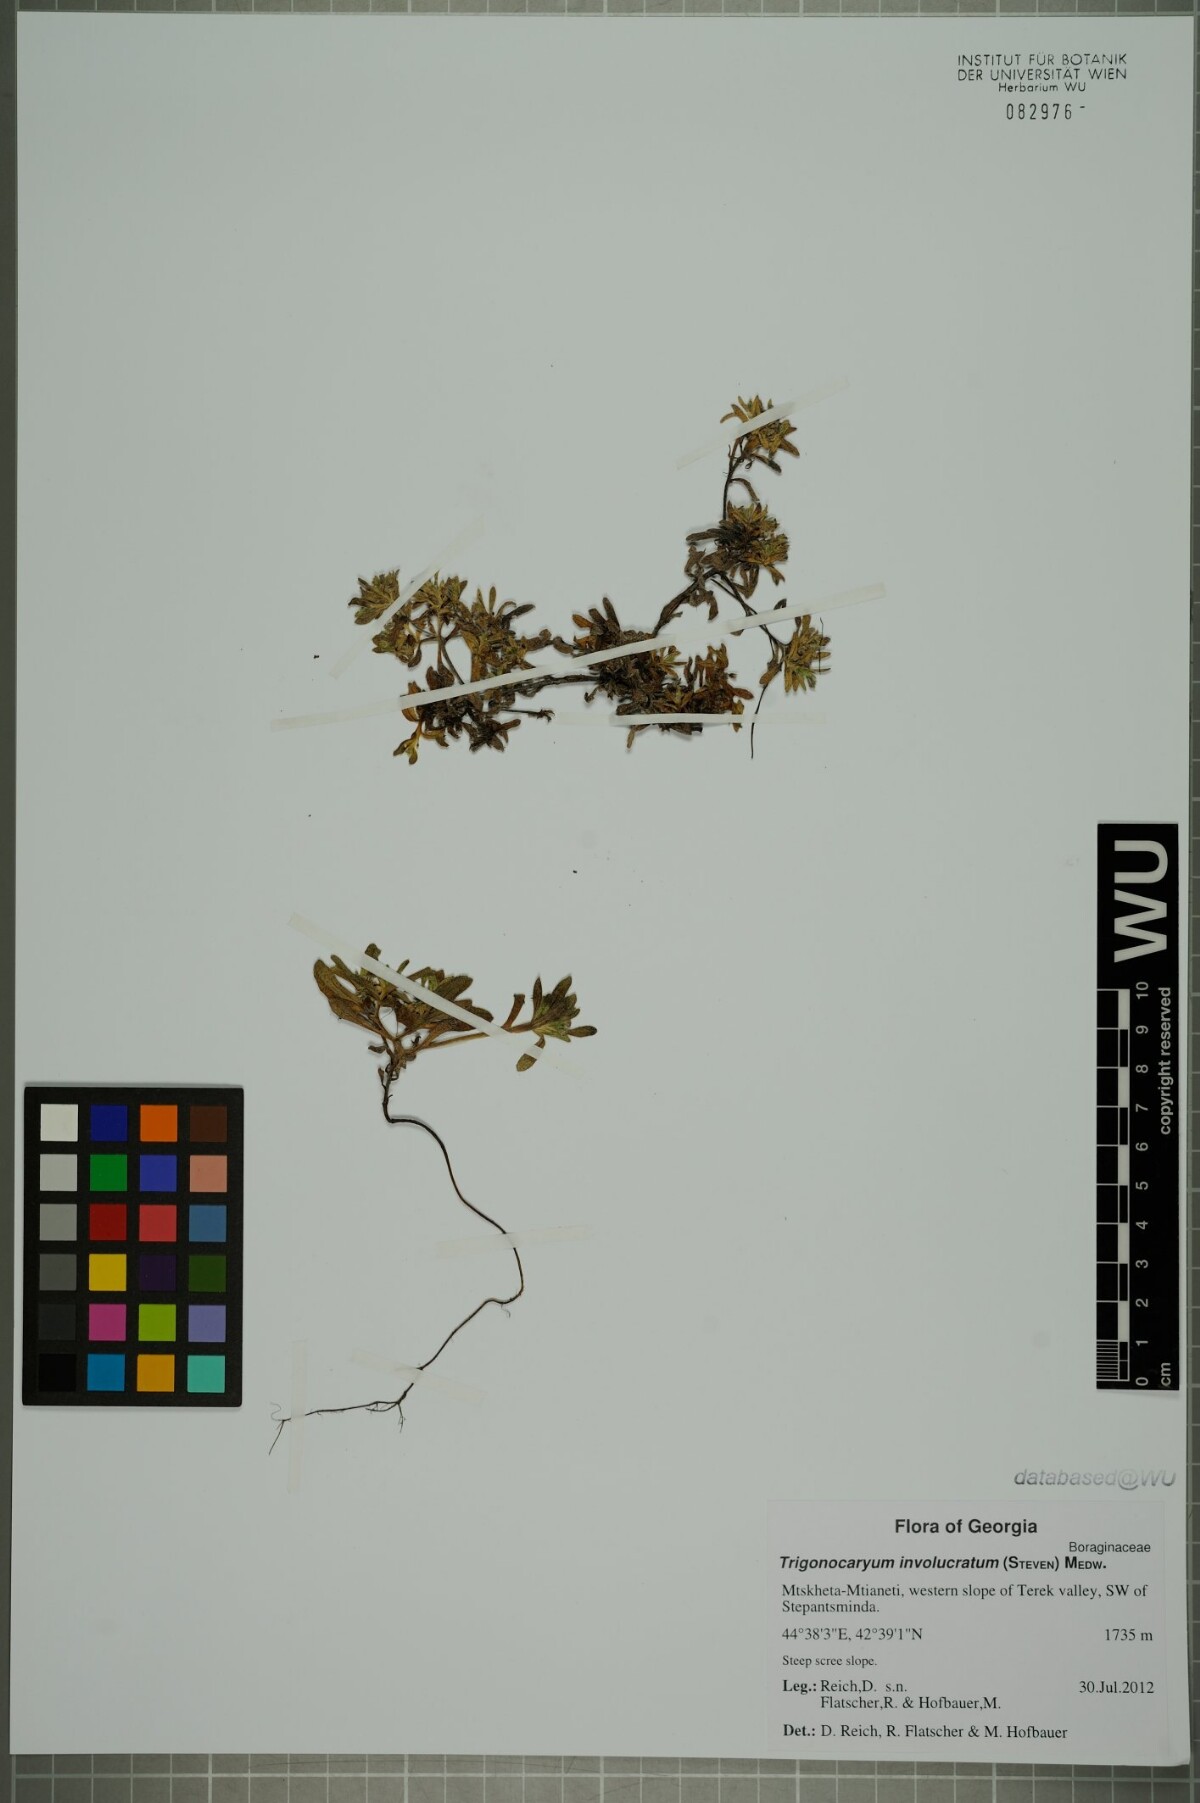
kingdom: Plantae
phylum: Tracheophyta
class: Magnoliopsida
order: Boraginales
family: Boraginaceae
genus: Myosotis
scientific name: Myosotis involucrata
